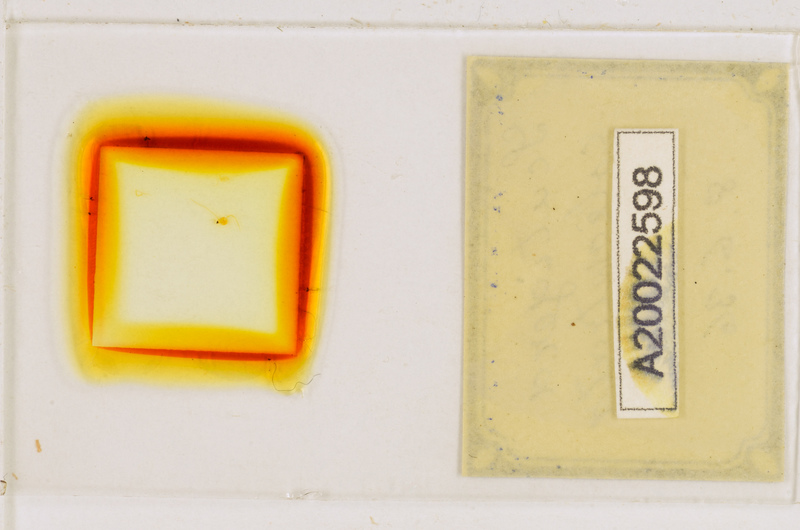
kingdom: Animalia
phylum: Arthropoda
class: Chilopoda
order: Scutigeromorpha
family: Scutigeridae
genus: Scutigera
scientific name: Scutigera coleoptrata
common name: House centipede
